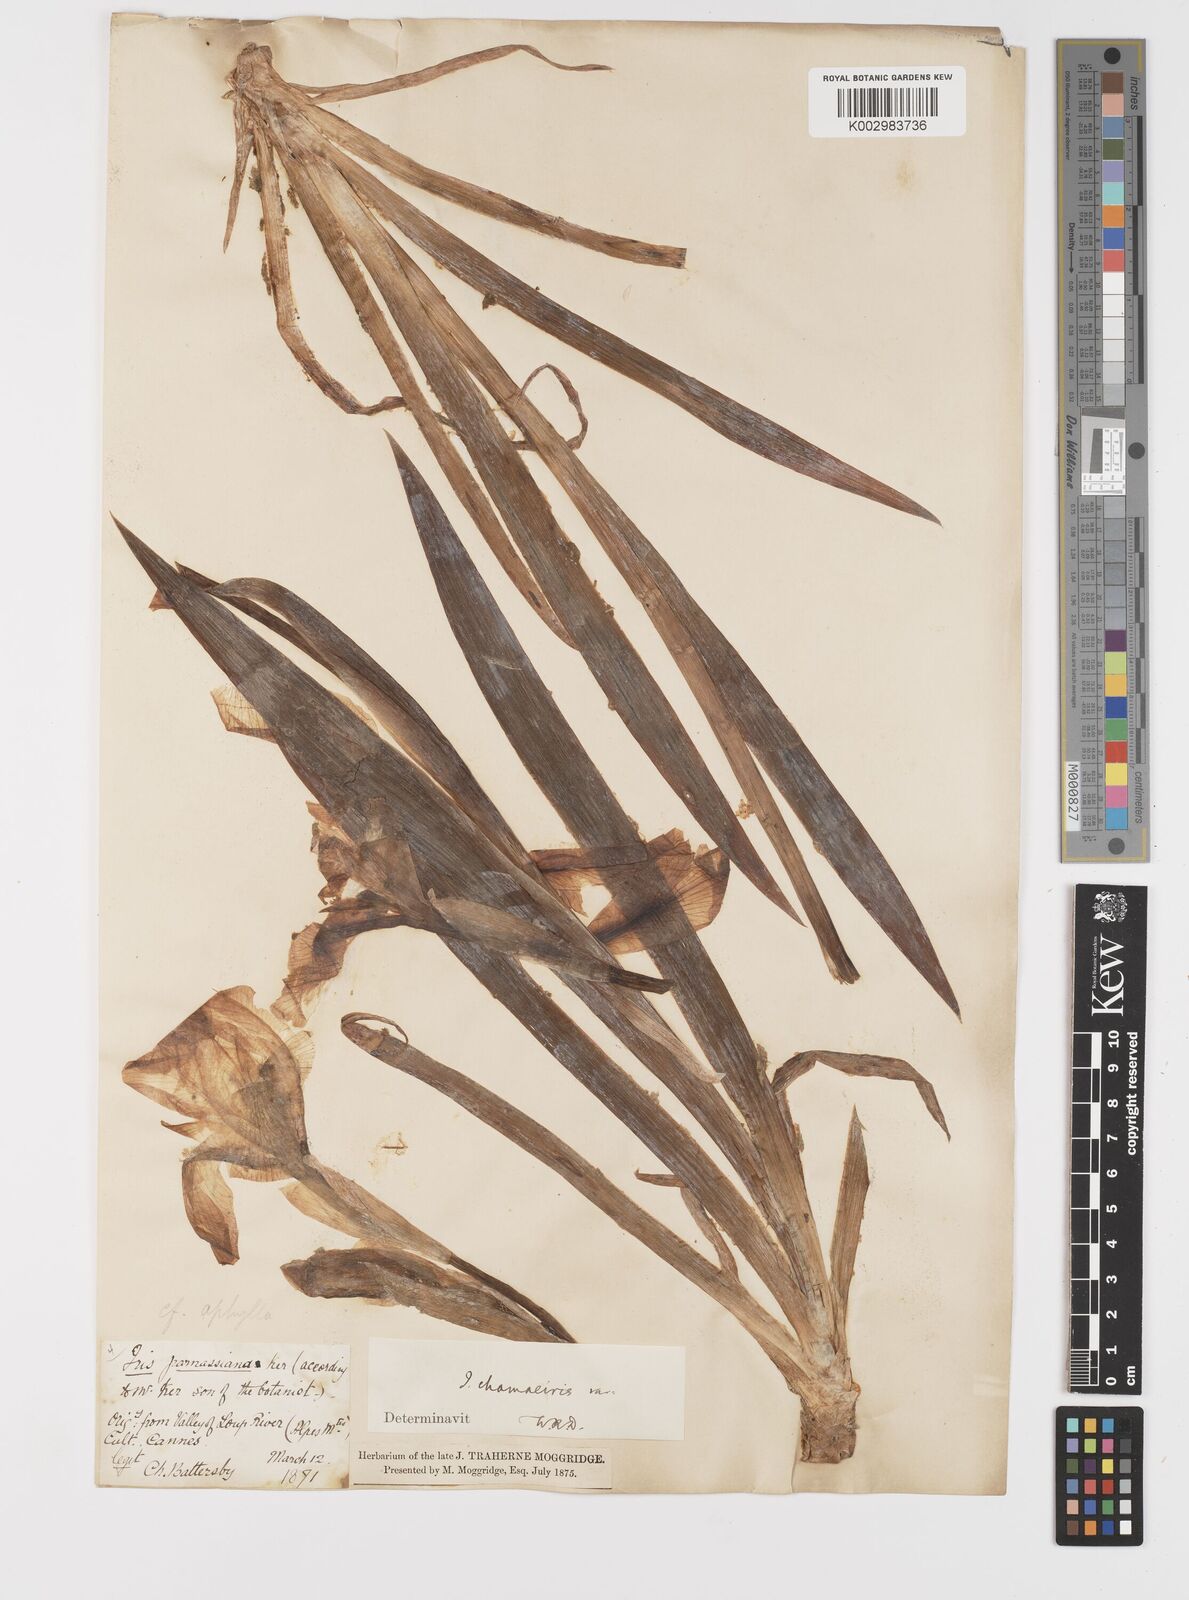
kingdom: Plantae
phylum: Tracheophyta
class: Liliopsida
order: Asparagales
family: Iridaceae
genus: Iris
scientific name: Iris lutescens
